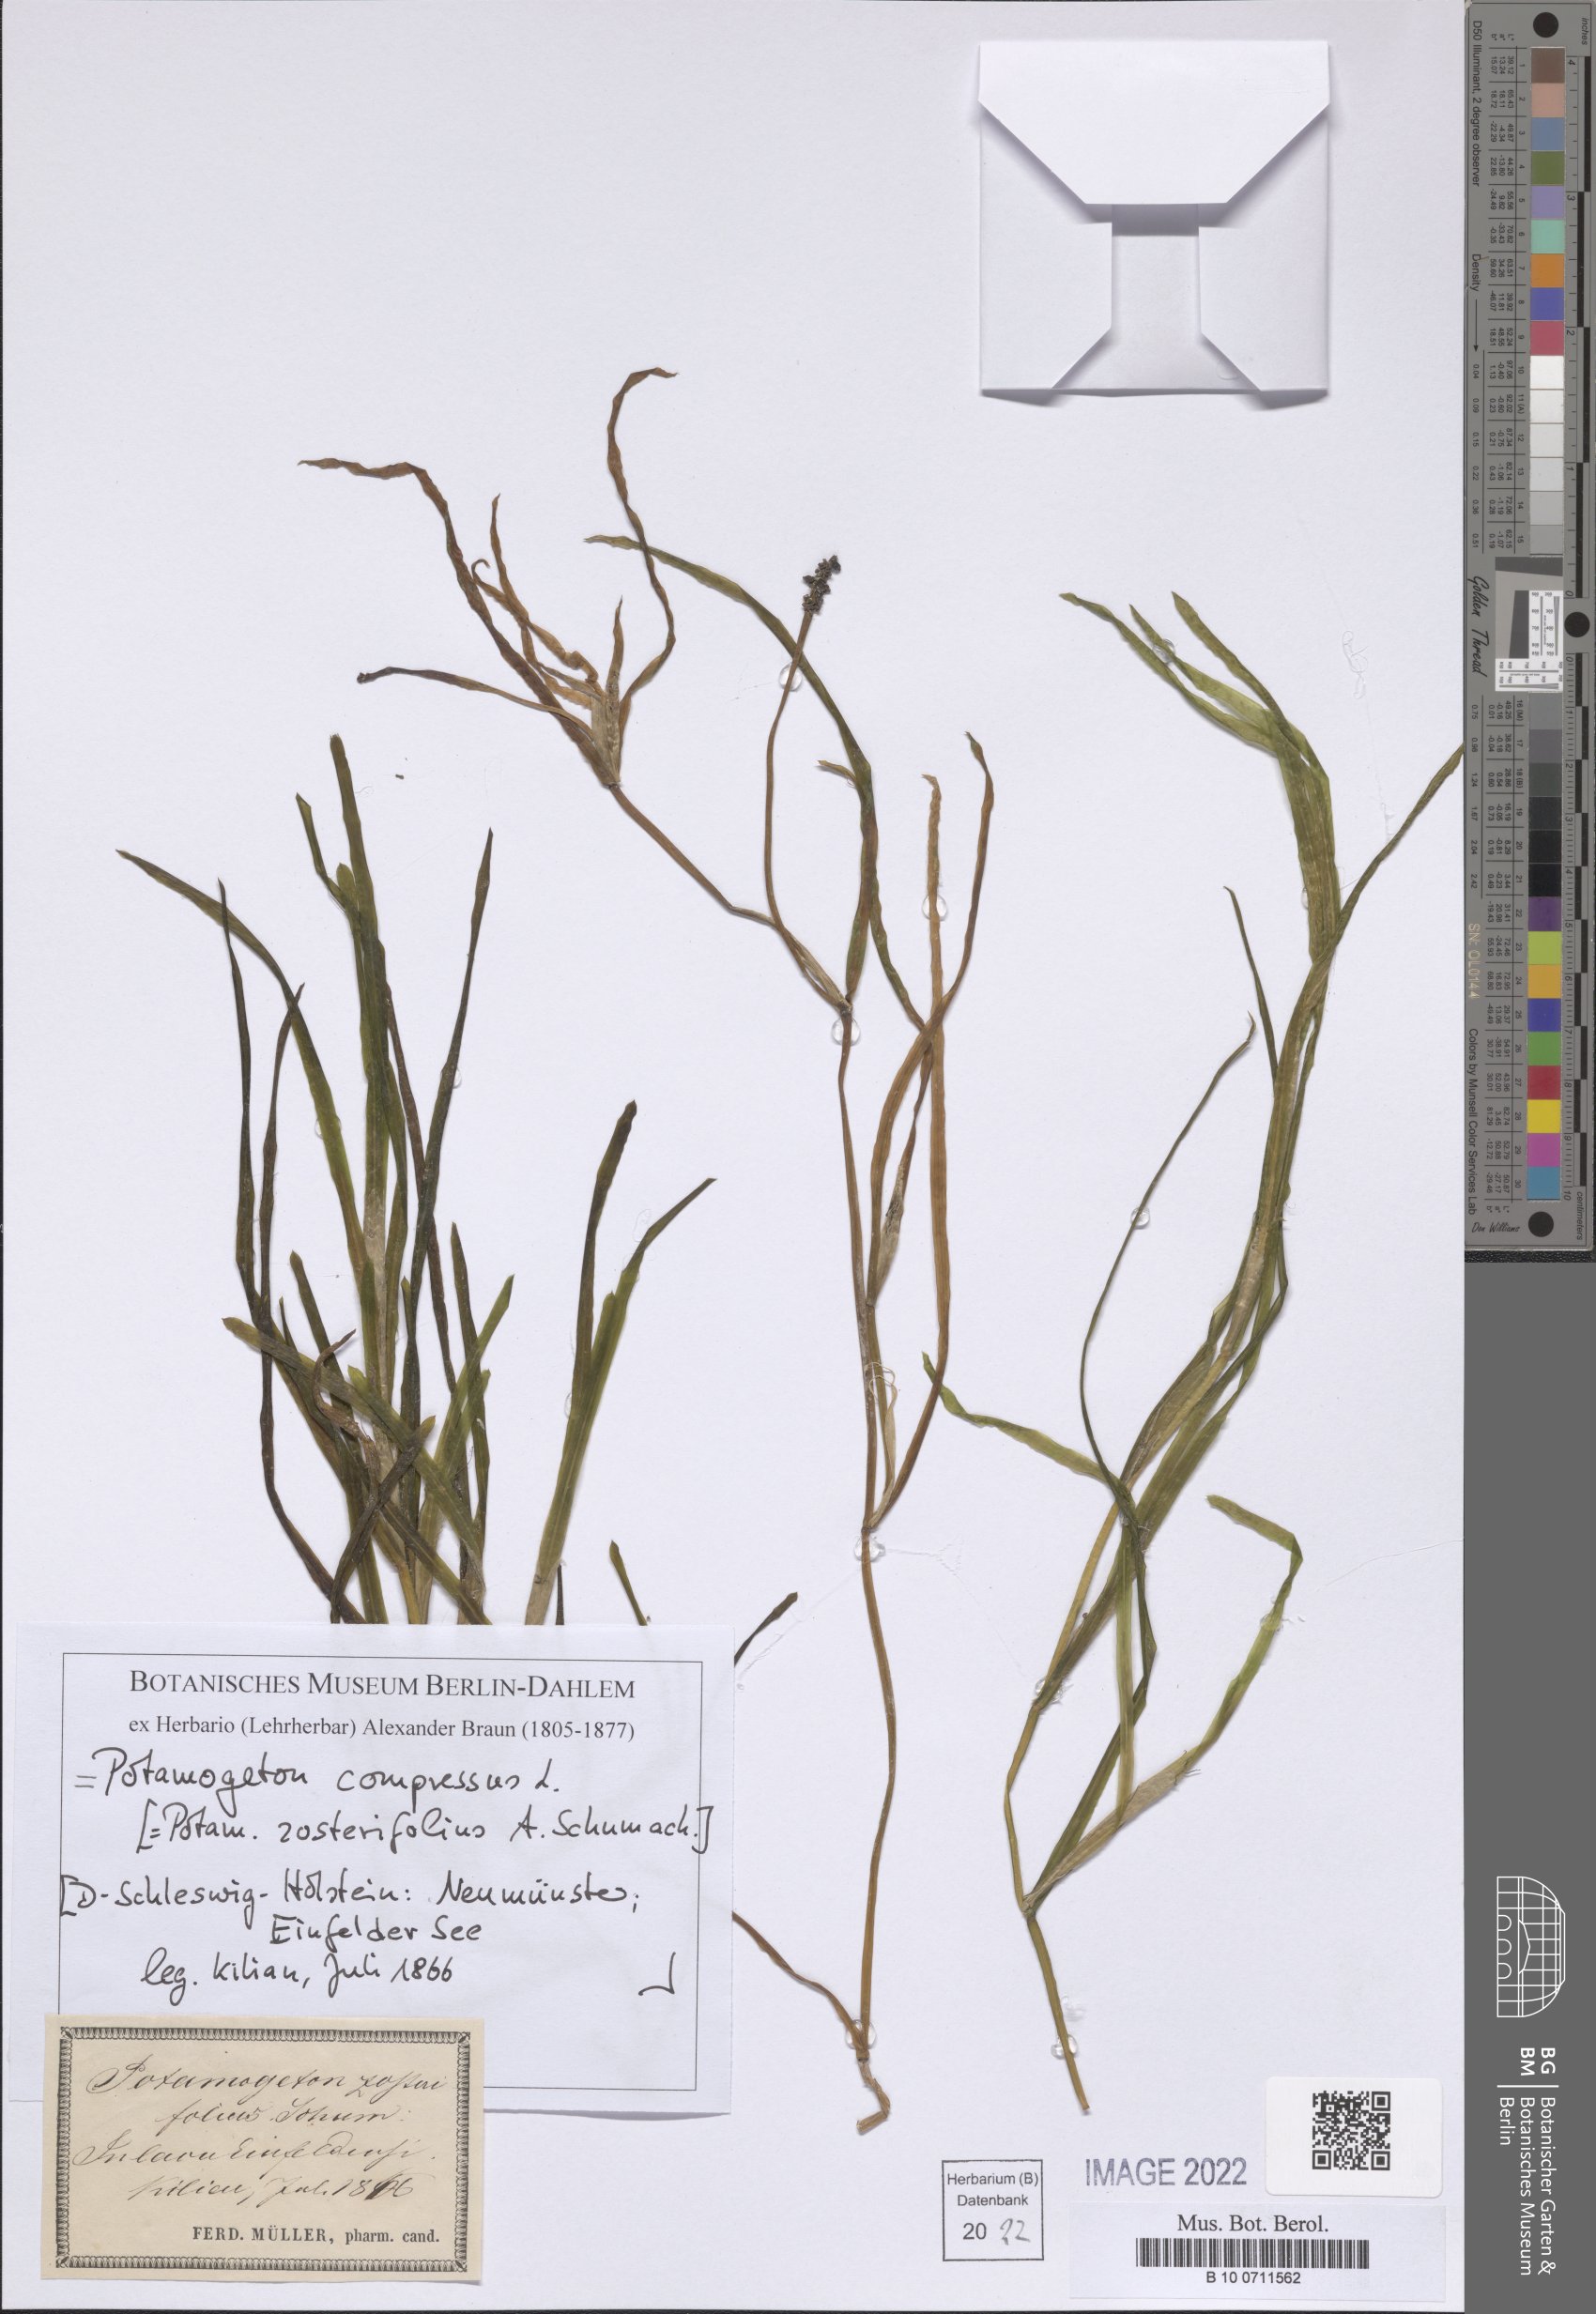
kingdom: Plantae
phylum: Tracheophyta
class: Liliopsida
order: Alismatales
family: Potamogetonaceae
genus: Potamogeton
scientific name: Potamogeton compressus
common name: Grass-wrack pondweed
